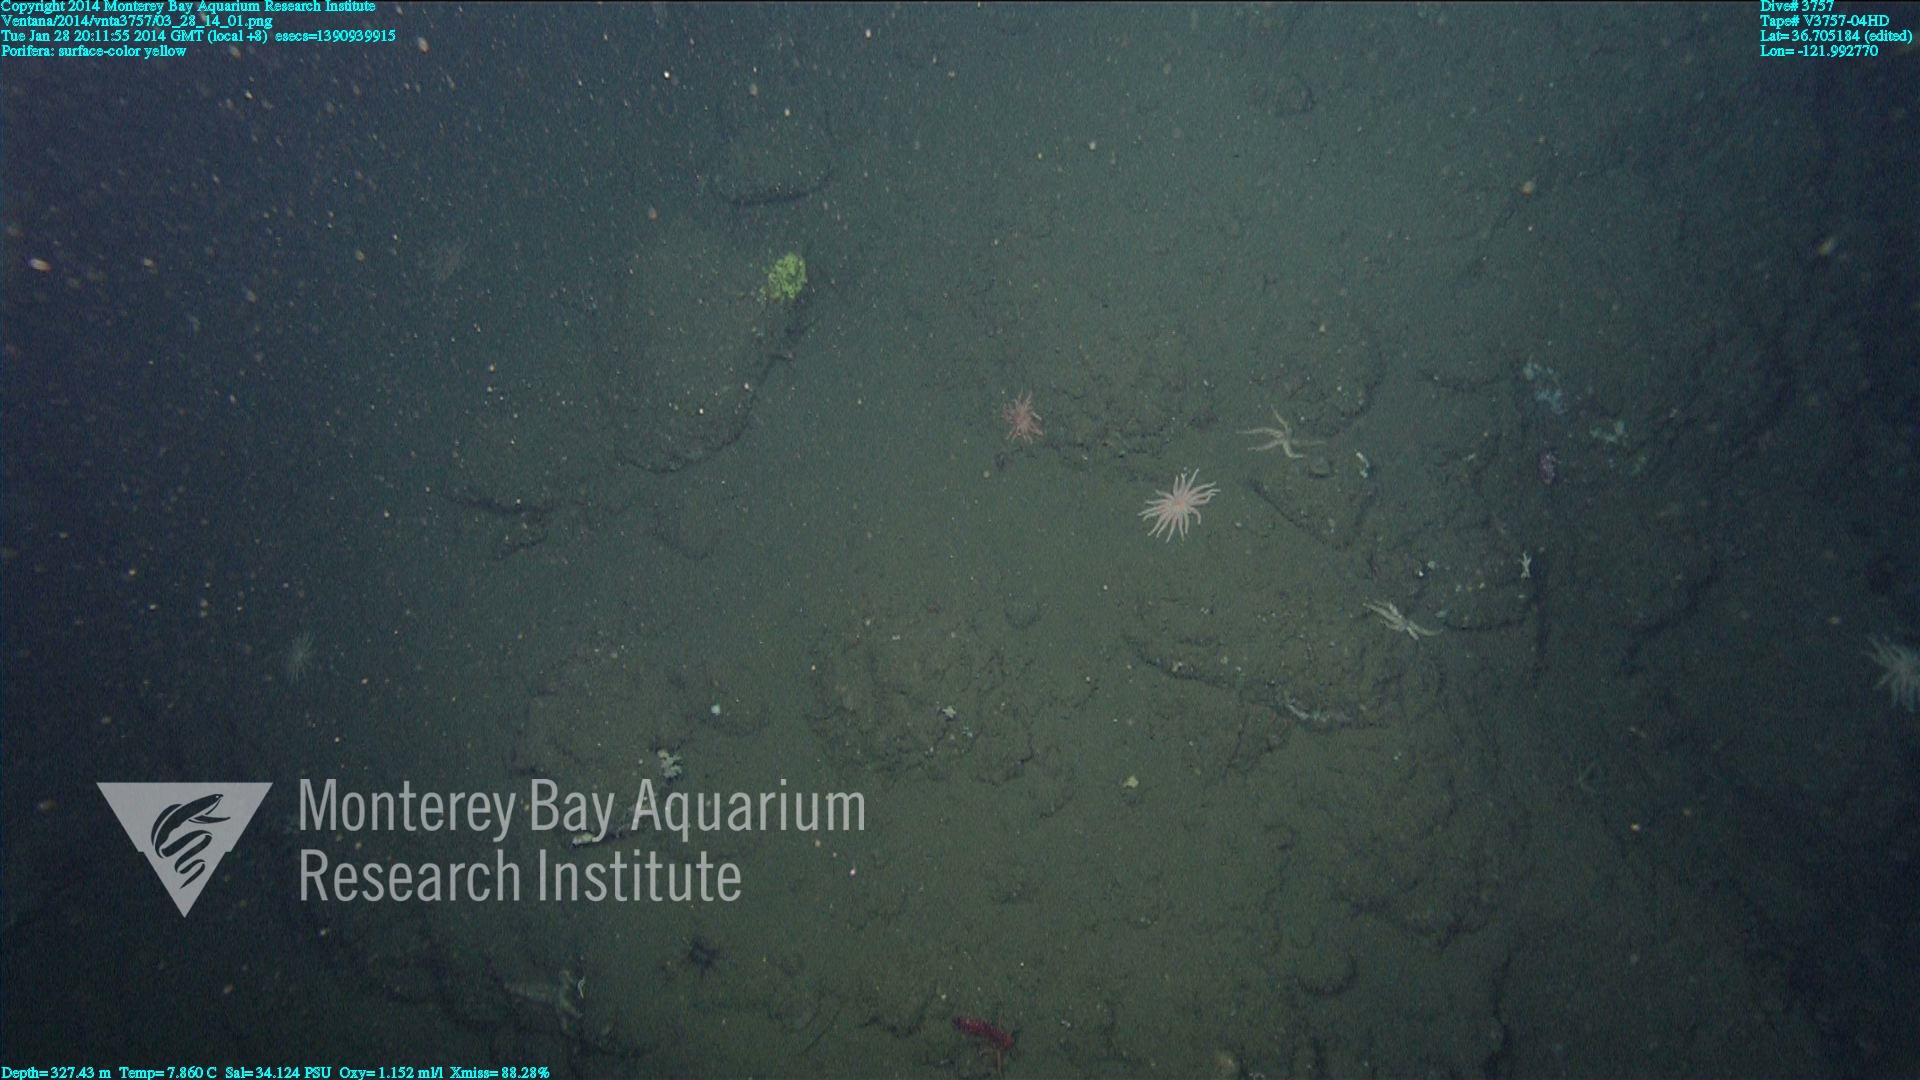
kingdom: Animalia
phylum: Porifera
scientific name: Porifera
